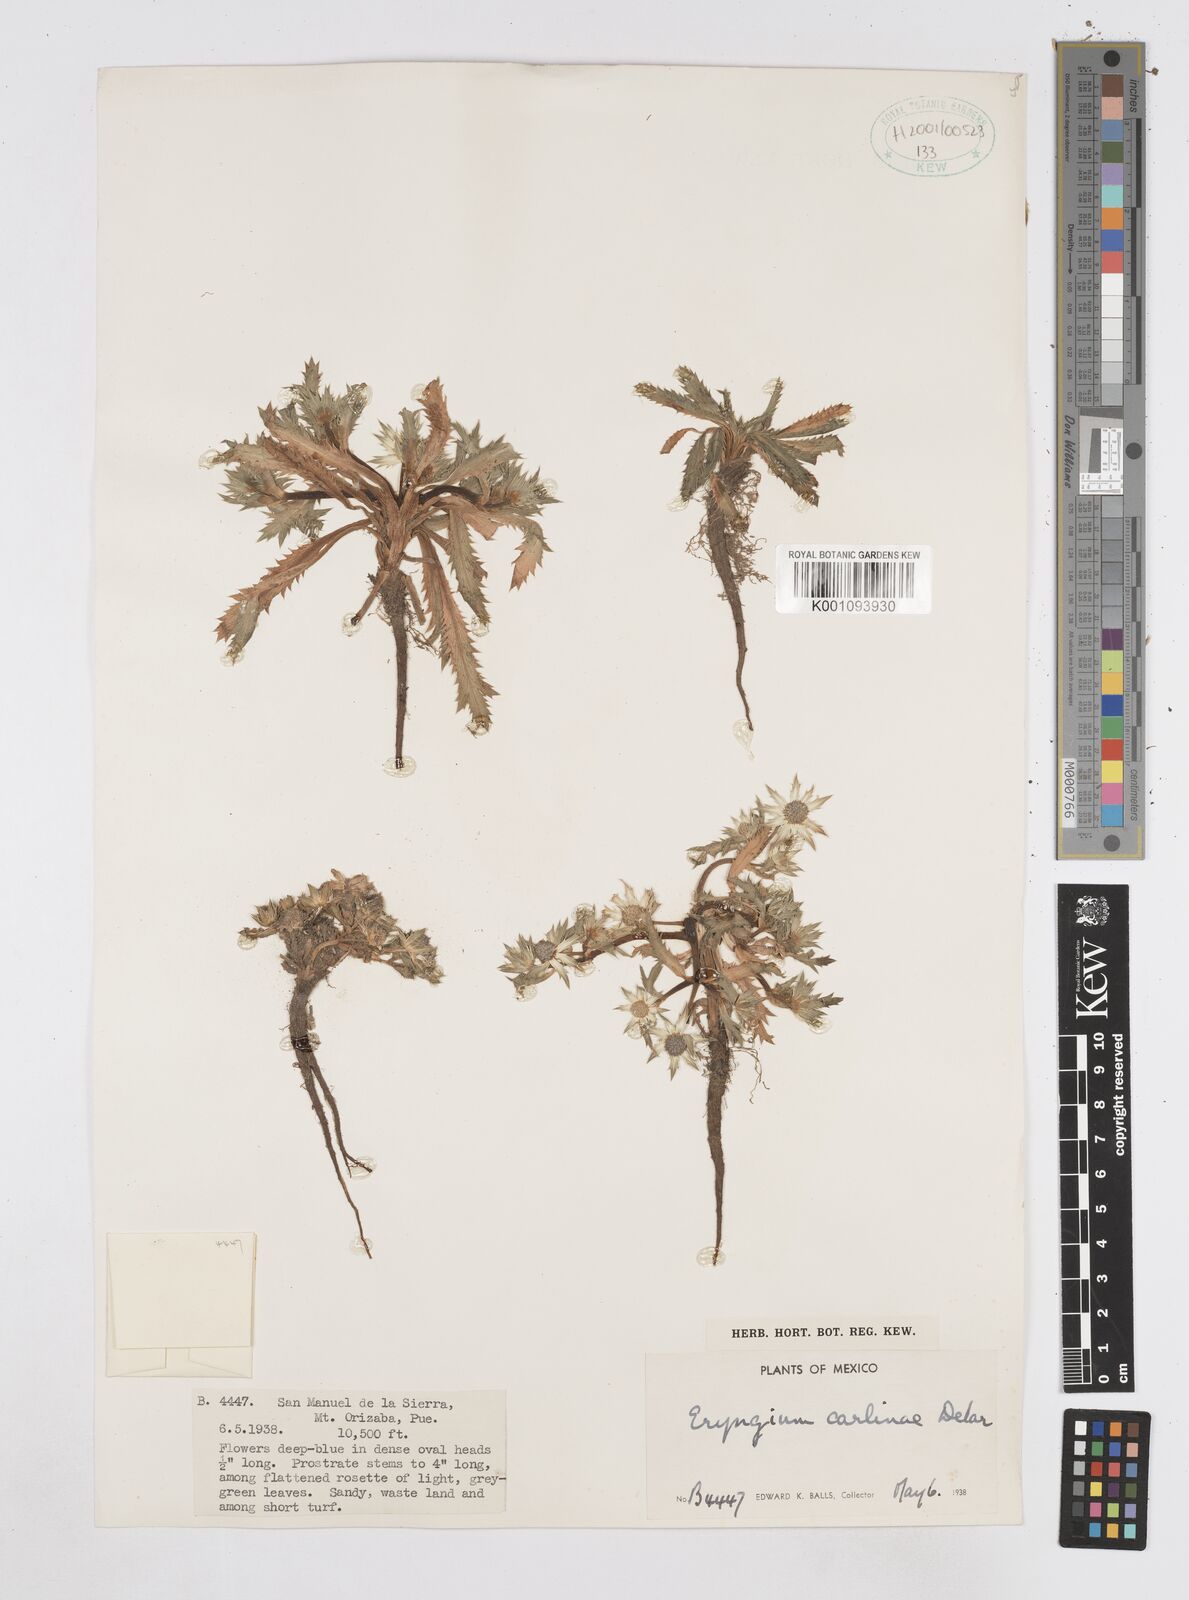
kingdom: Plantae
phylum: Tracheophyta
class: Magnoliopsida
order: Apiales
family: Apiaceae
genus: Eryngium
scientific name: Eryngium carlinae
